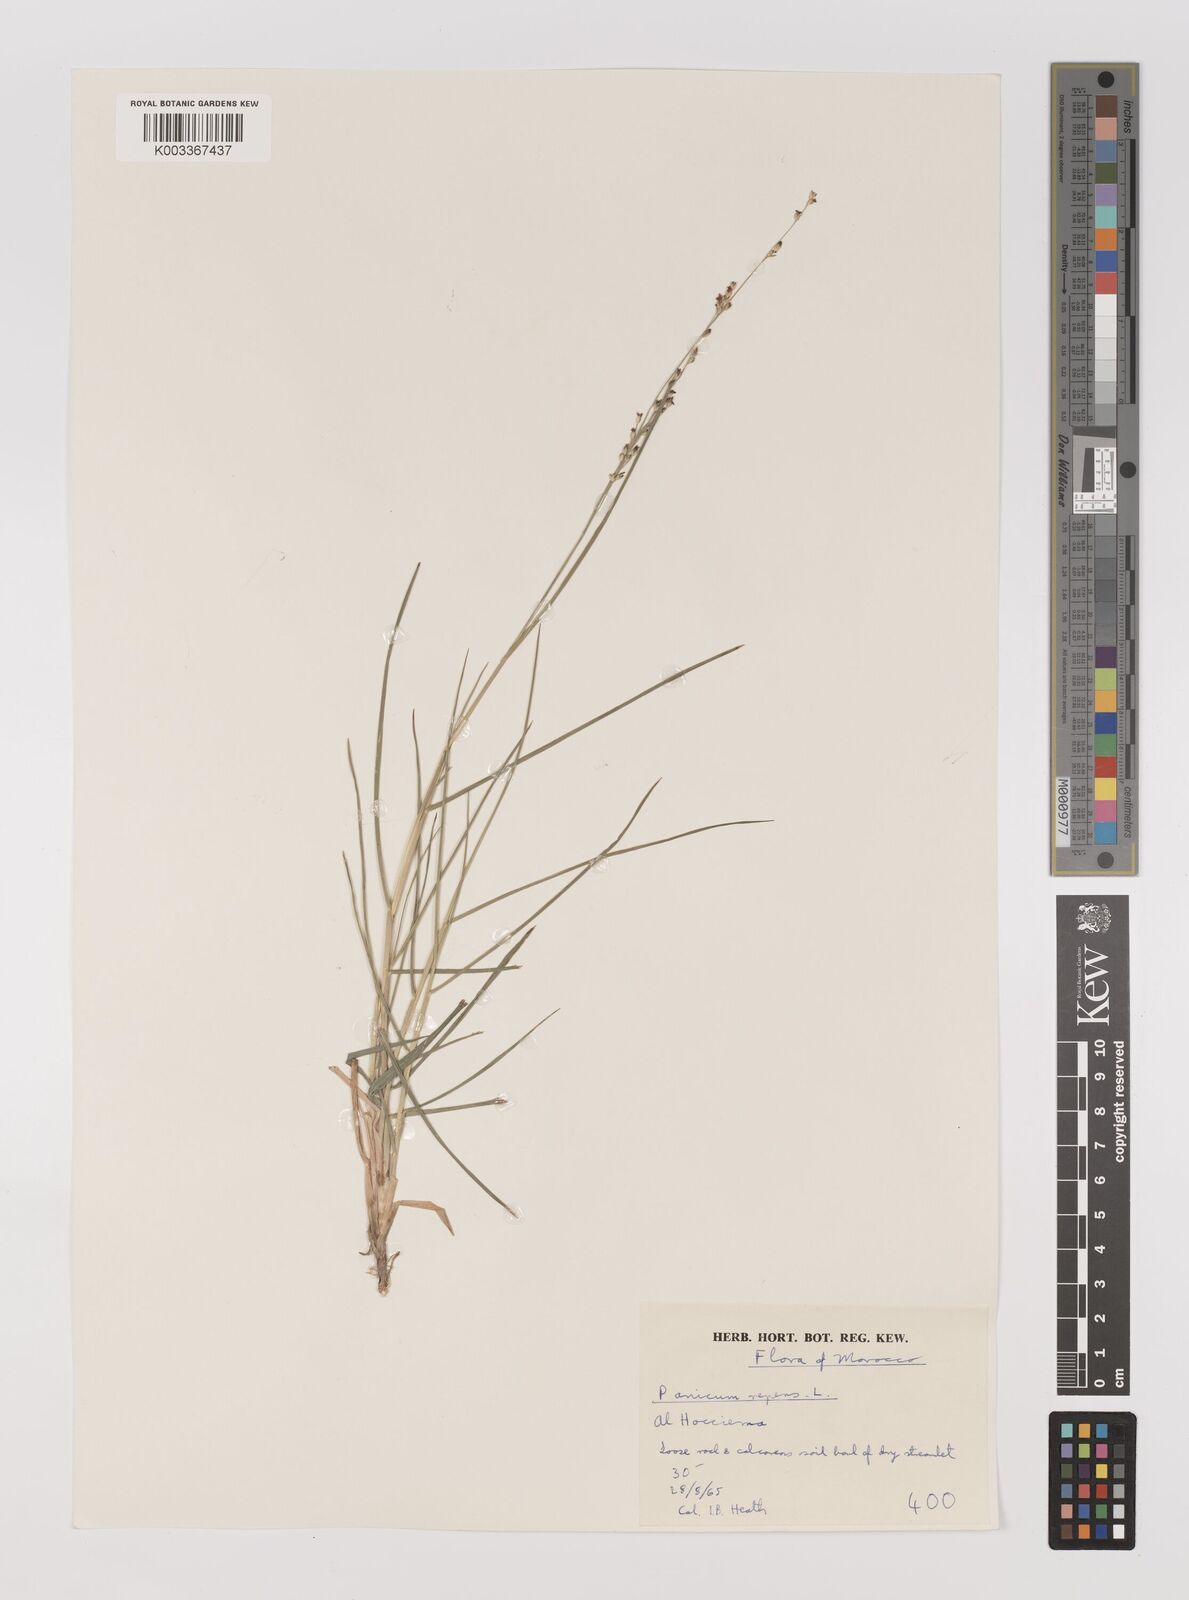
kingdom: Plantae
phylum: Tracheophyta
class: Liliopsida
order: Poales
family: Poaceae
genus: Panicum
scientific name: Panicum repens
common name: Torpedo grass
